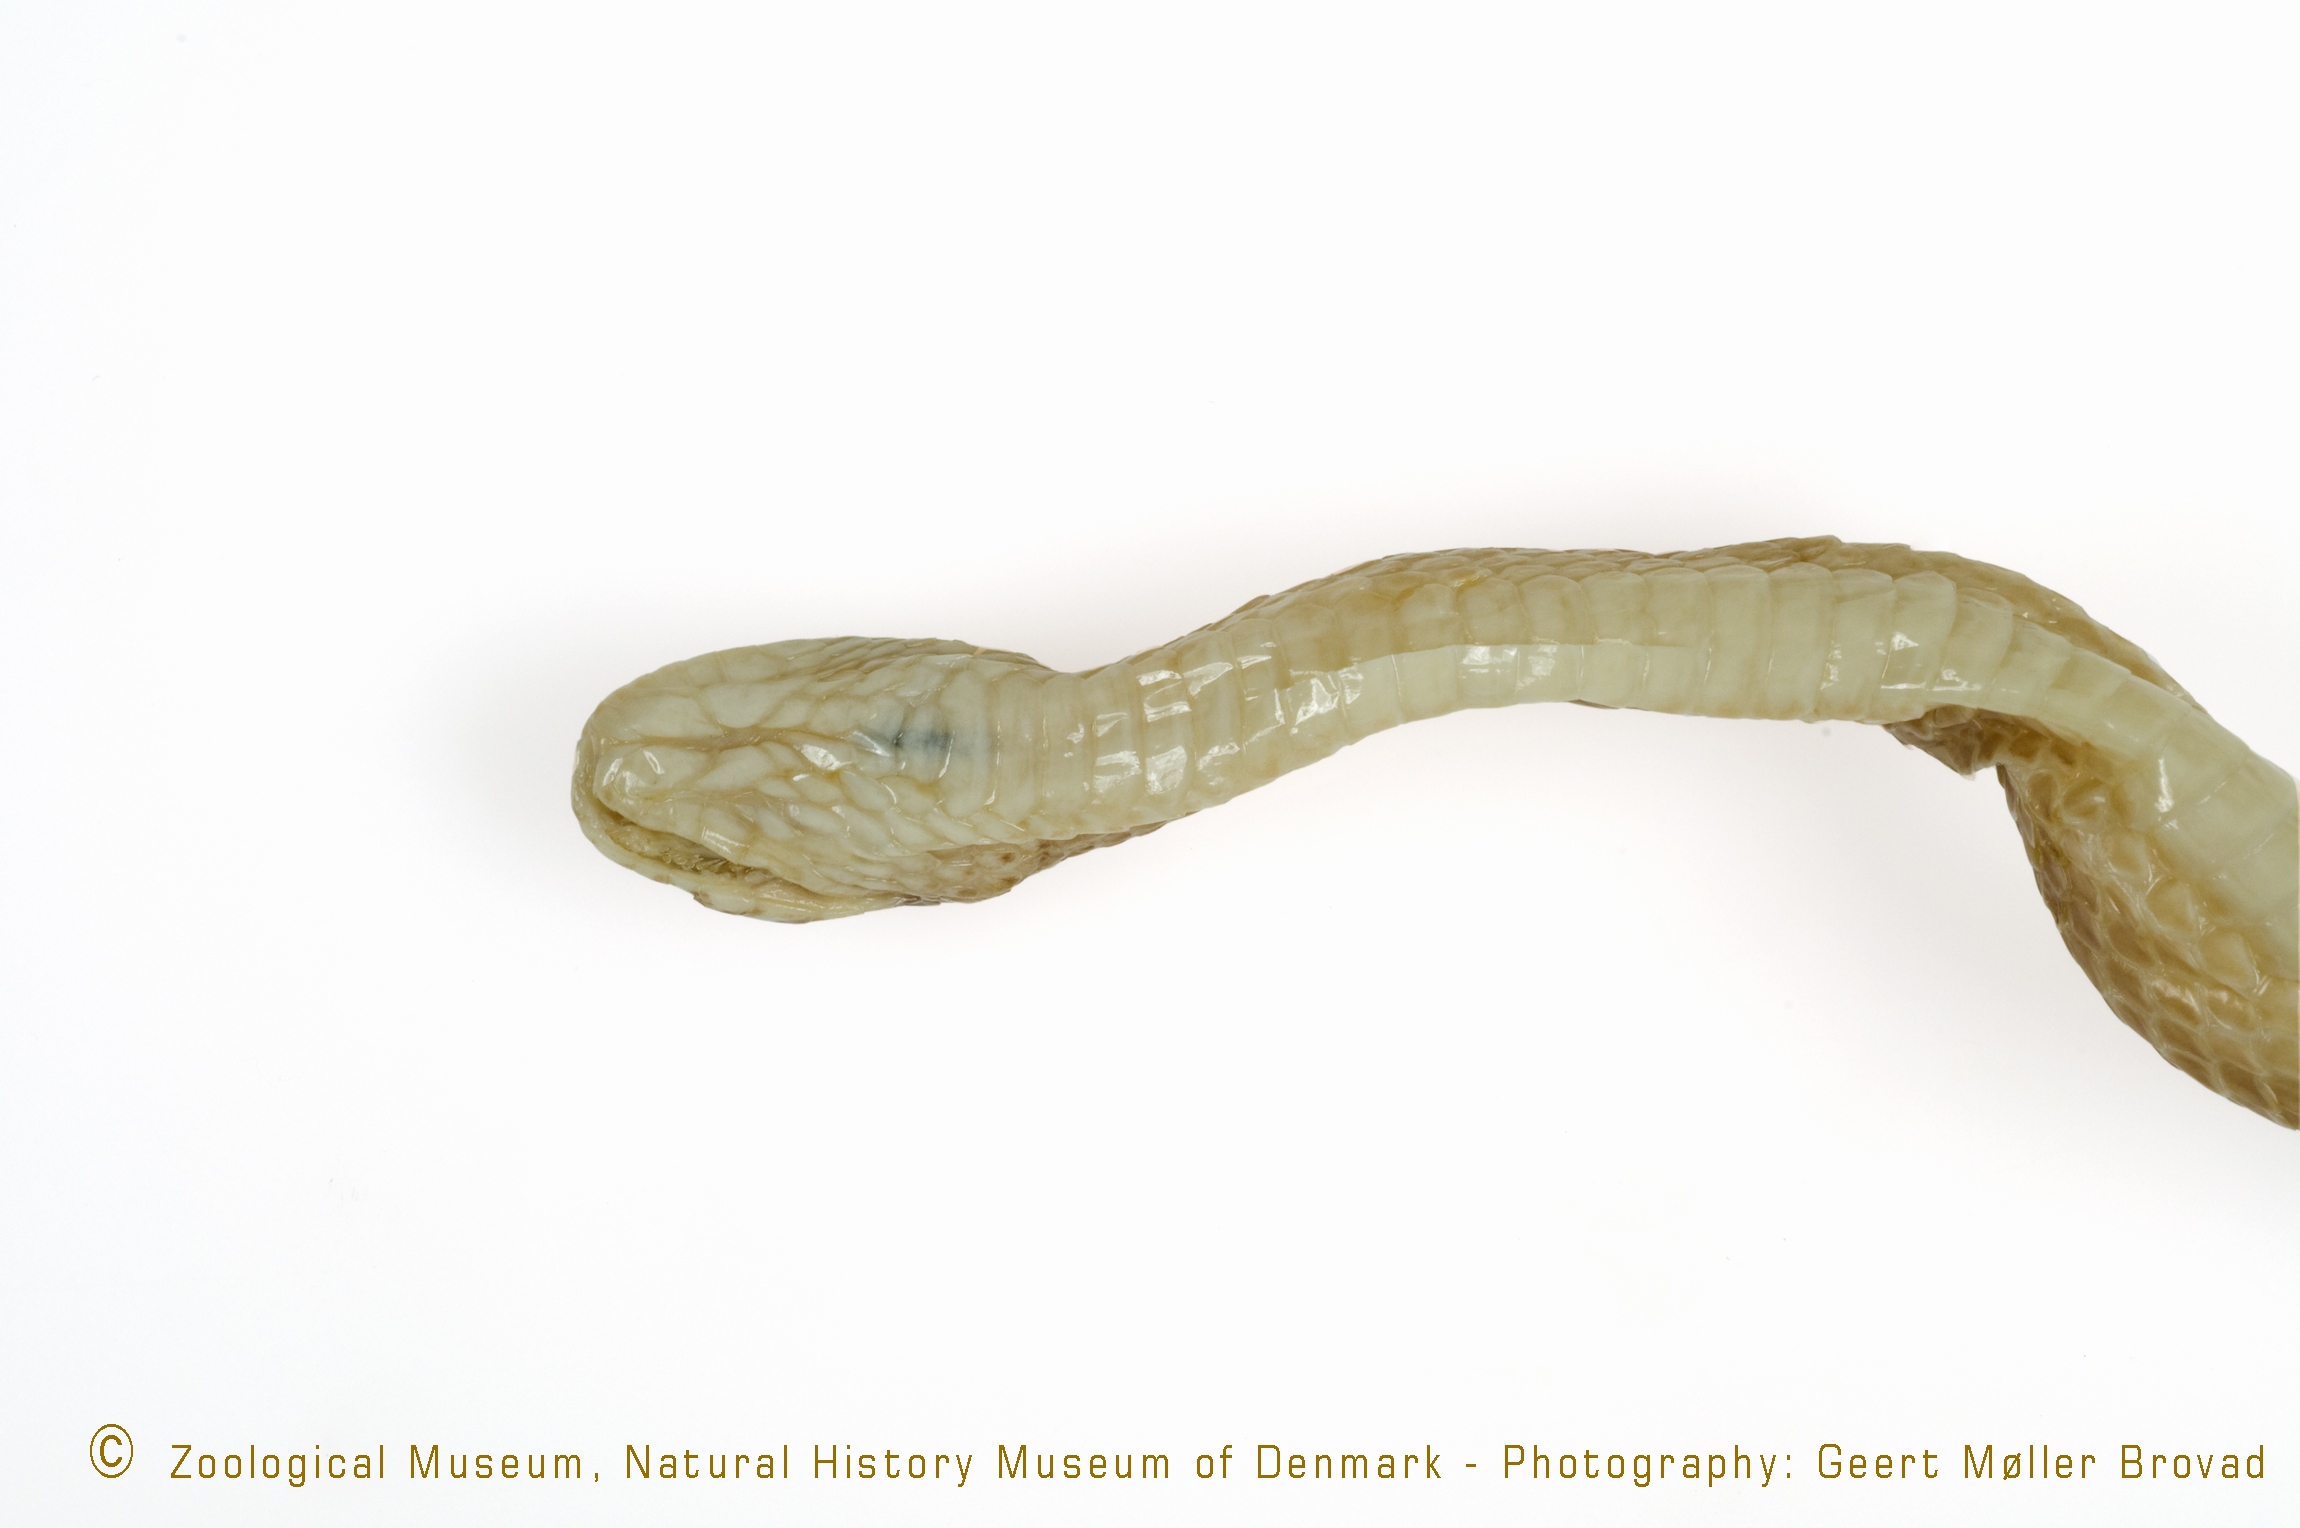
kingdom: Animalia
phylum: Chordata
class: Squamata
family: Colubridae
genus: Dipsadoboa
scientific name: Dipsadoboa aulica
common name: Cross-barred snake
